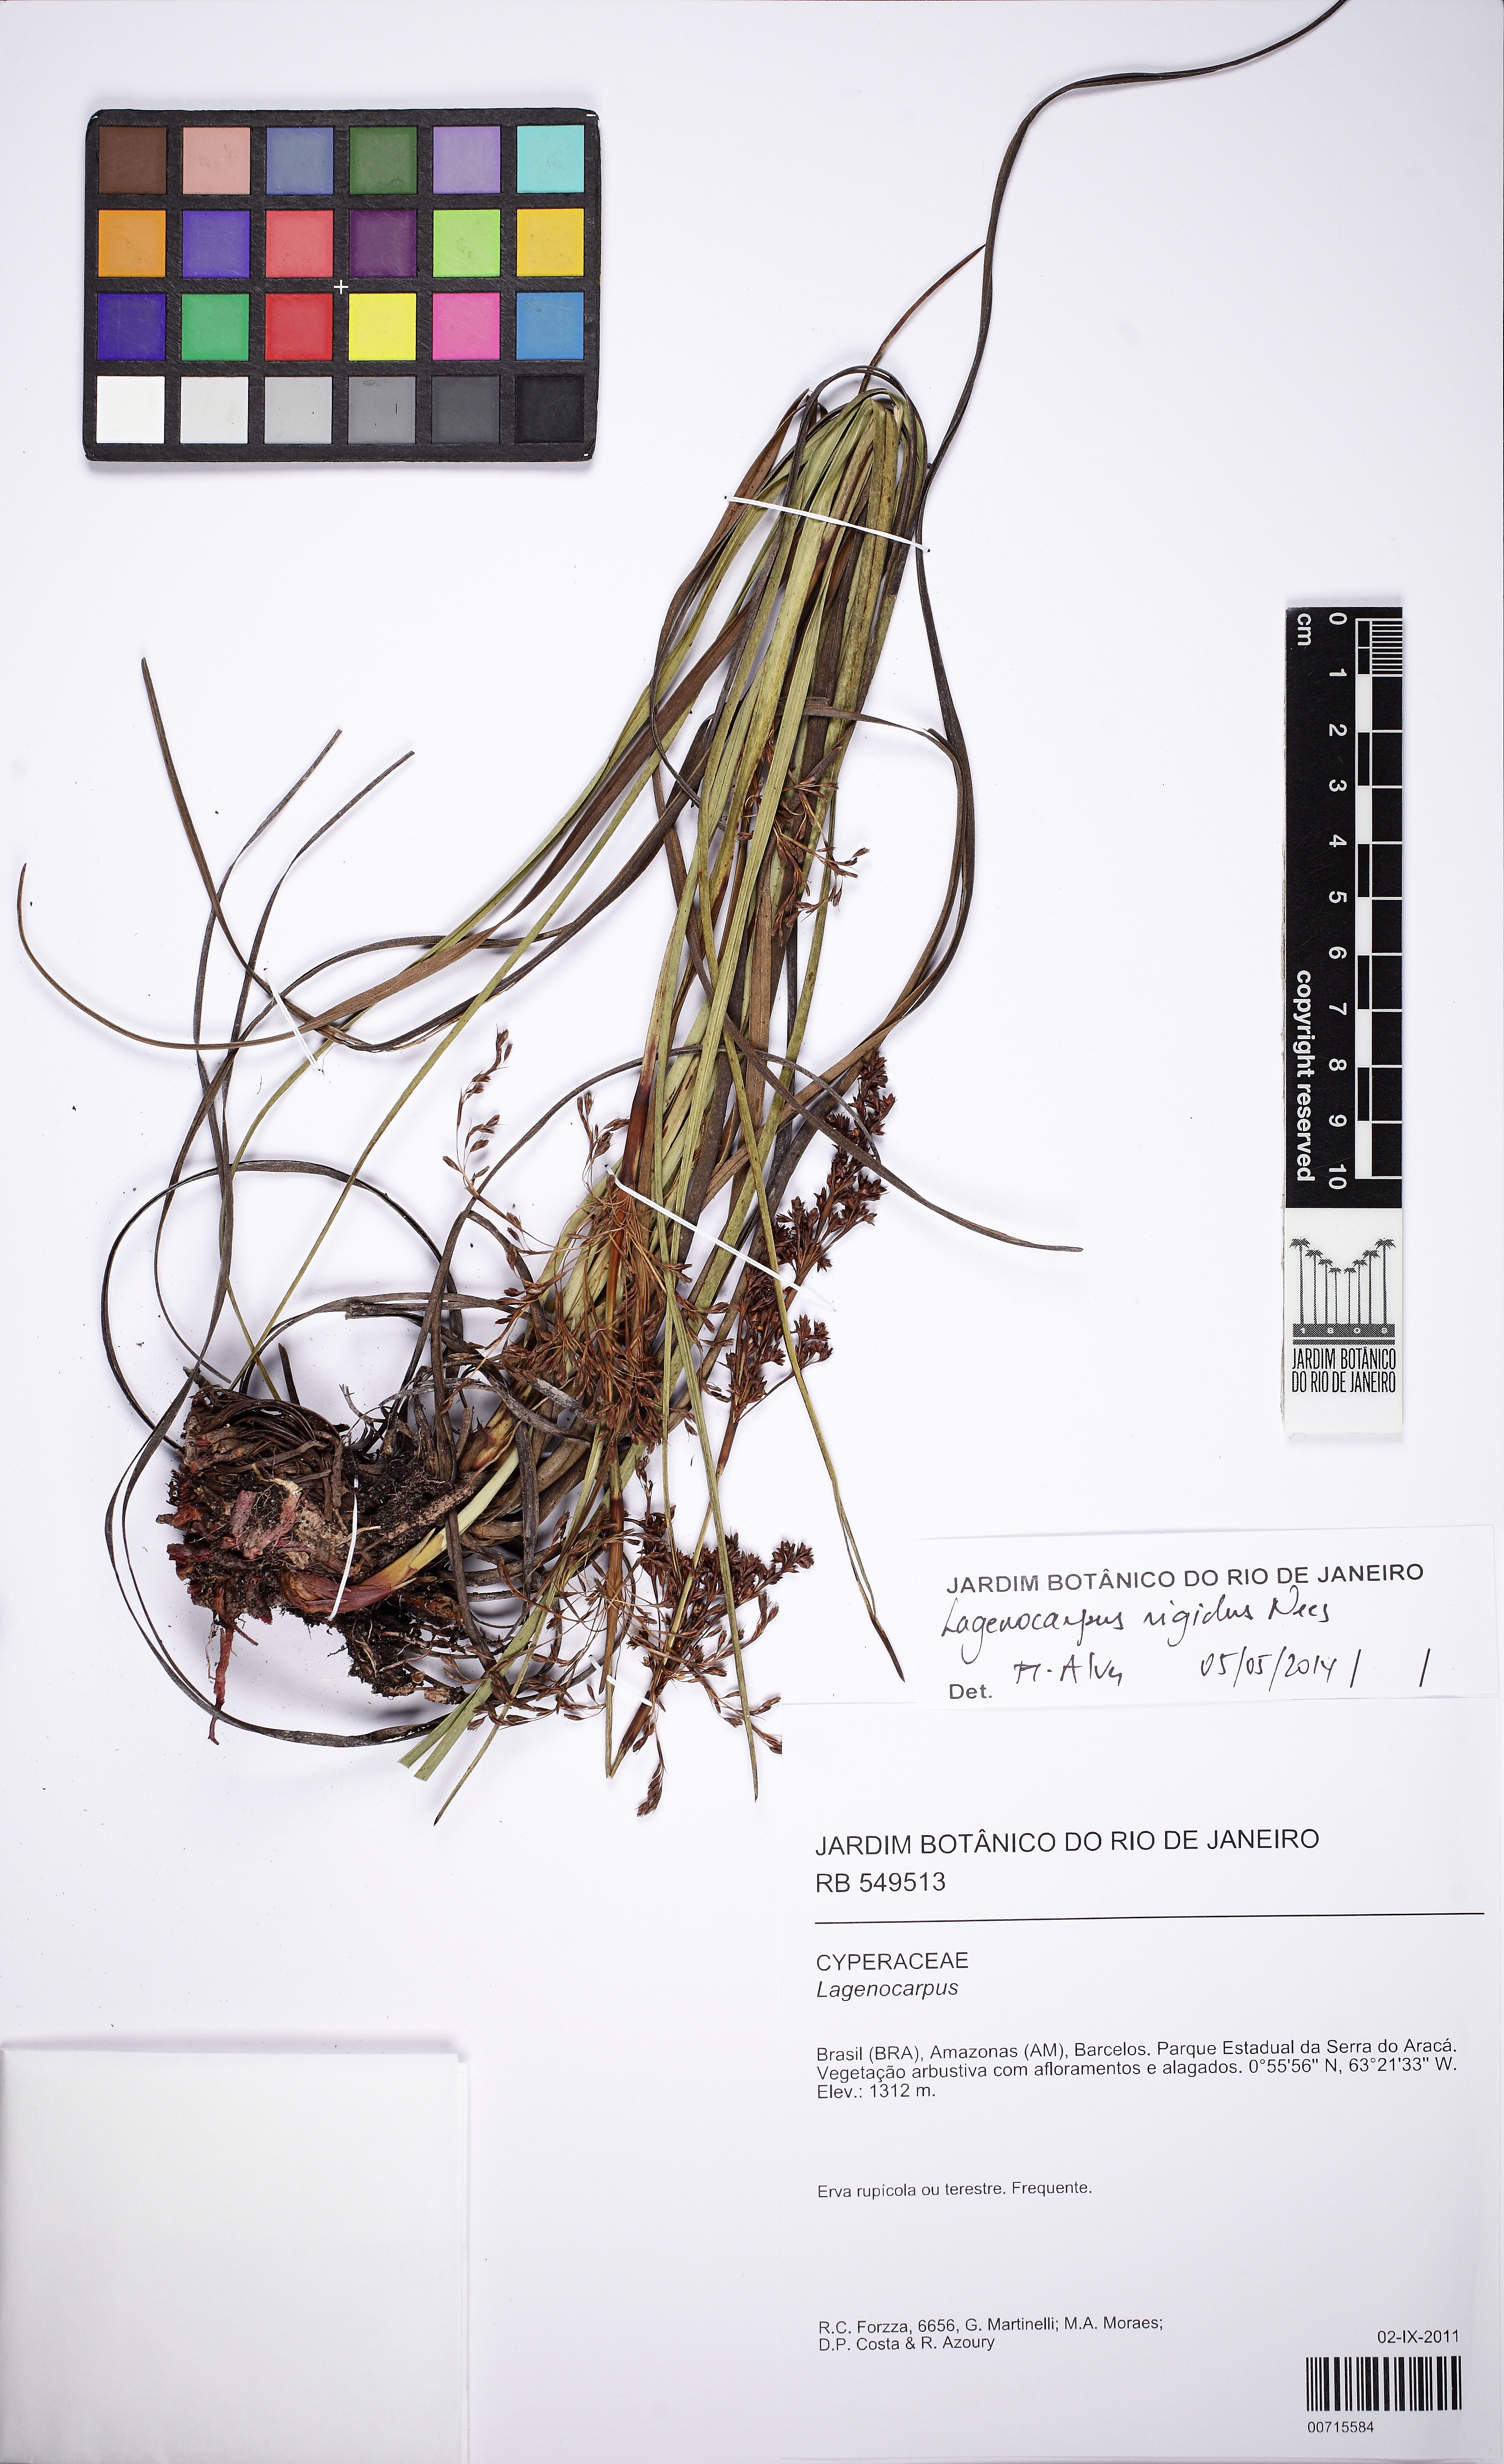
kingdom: Plantae
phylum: Tracheophyta
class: Liliopsida
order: Poales
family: Cyperaceae
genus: Lagenocarpus
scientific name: Lagenocarpus rigidus
